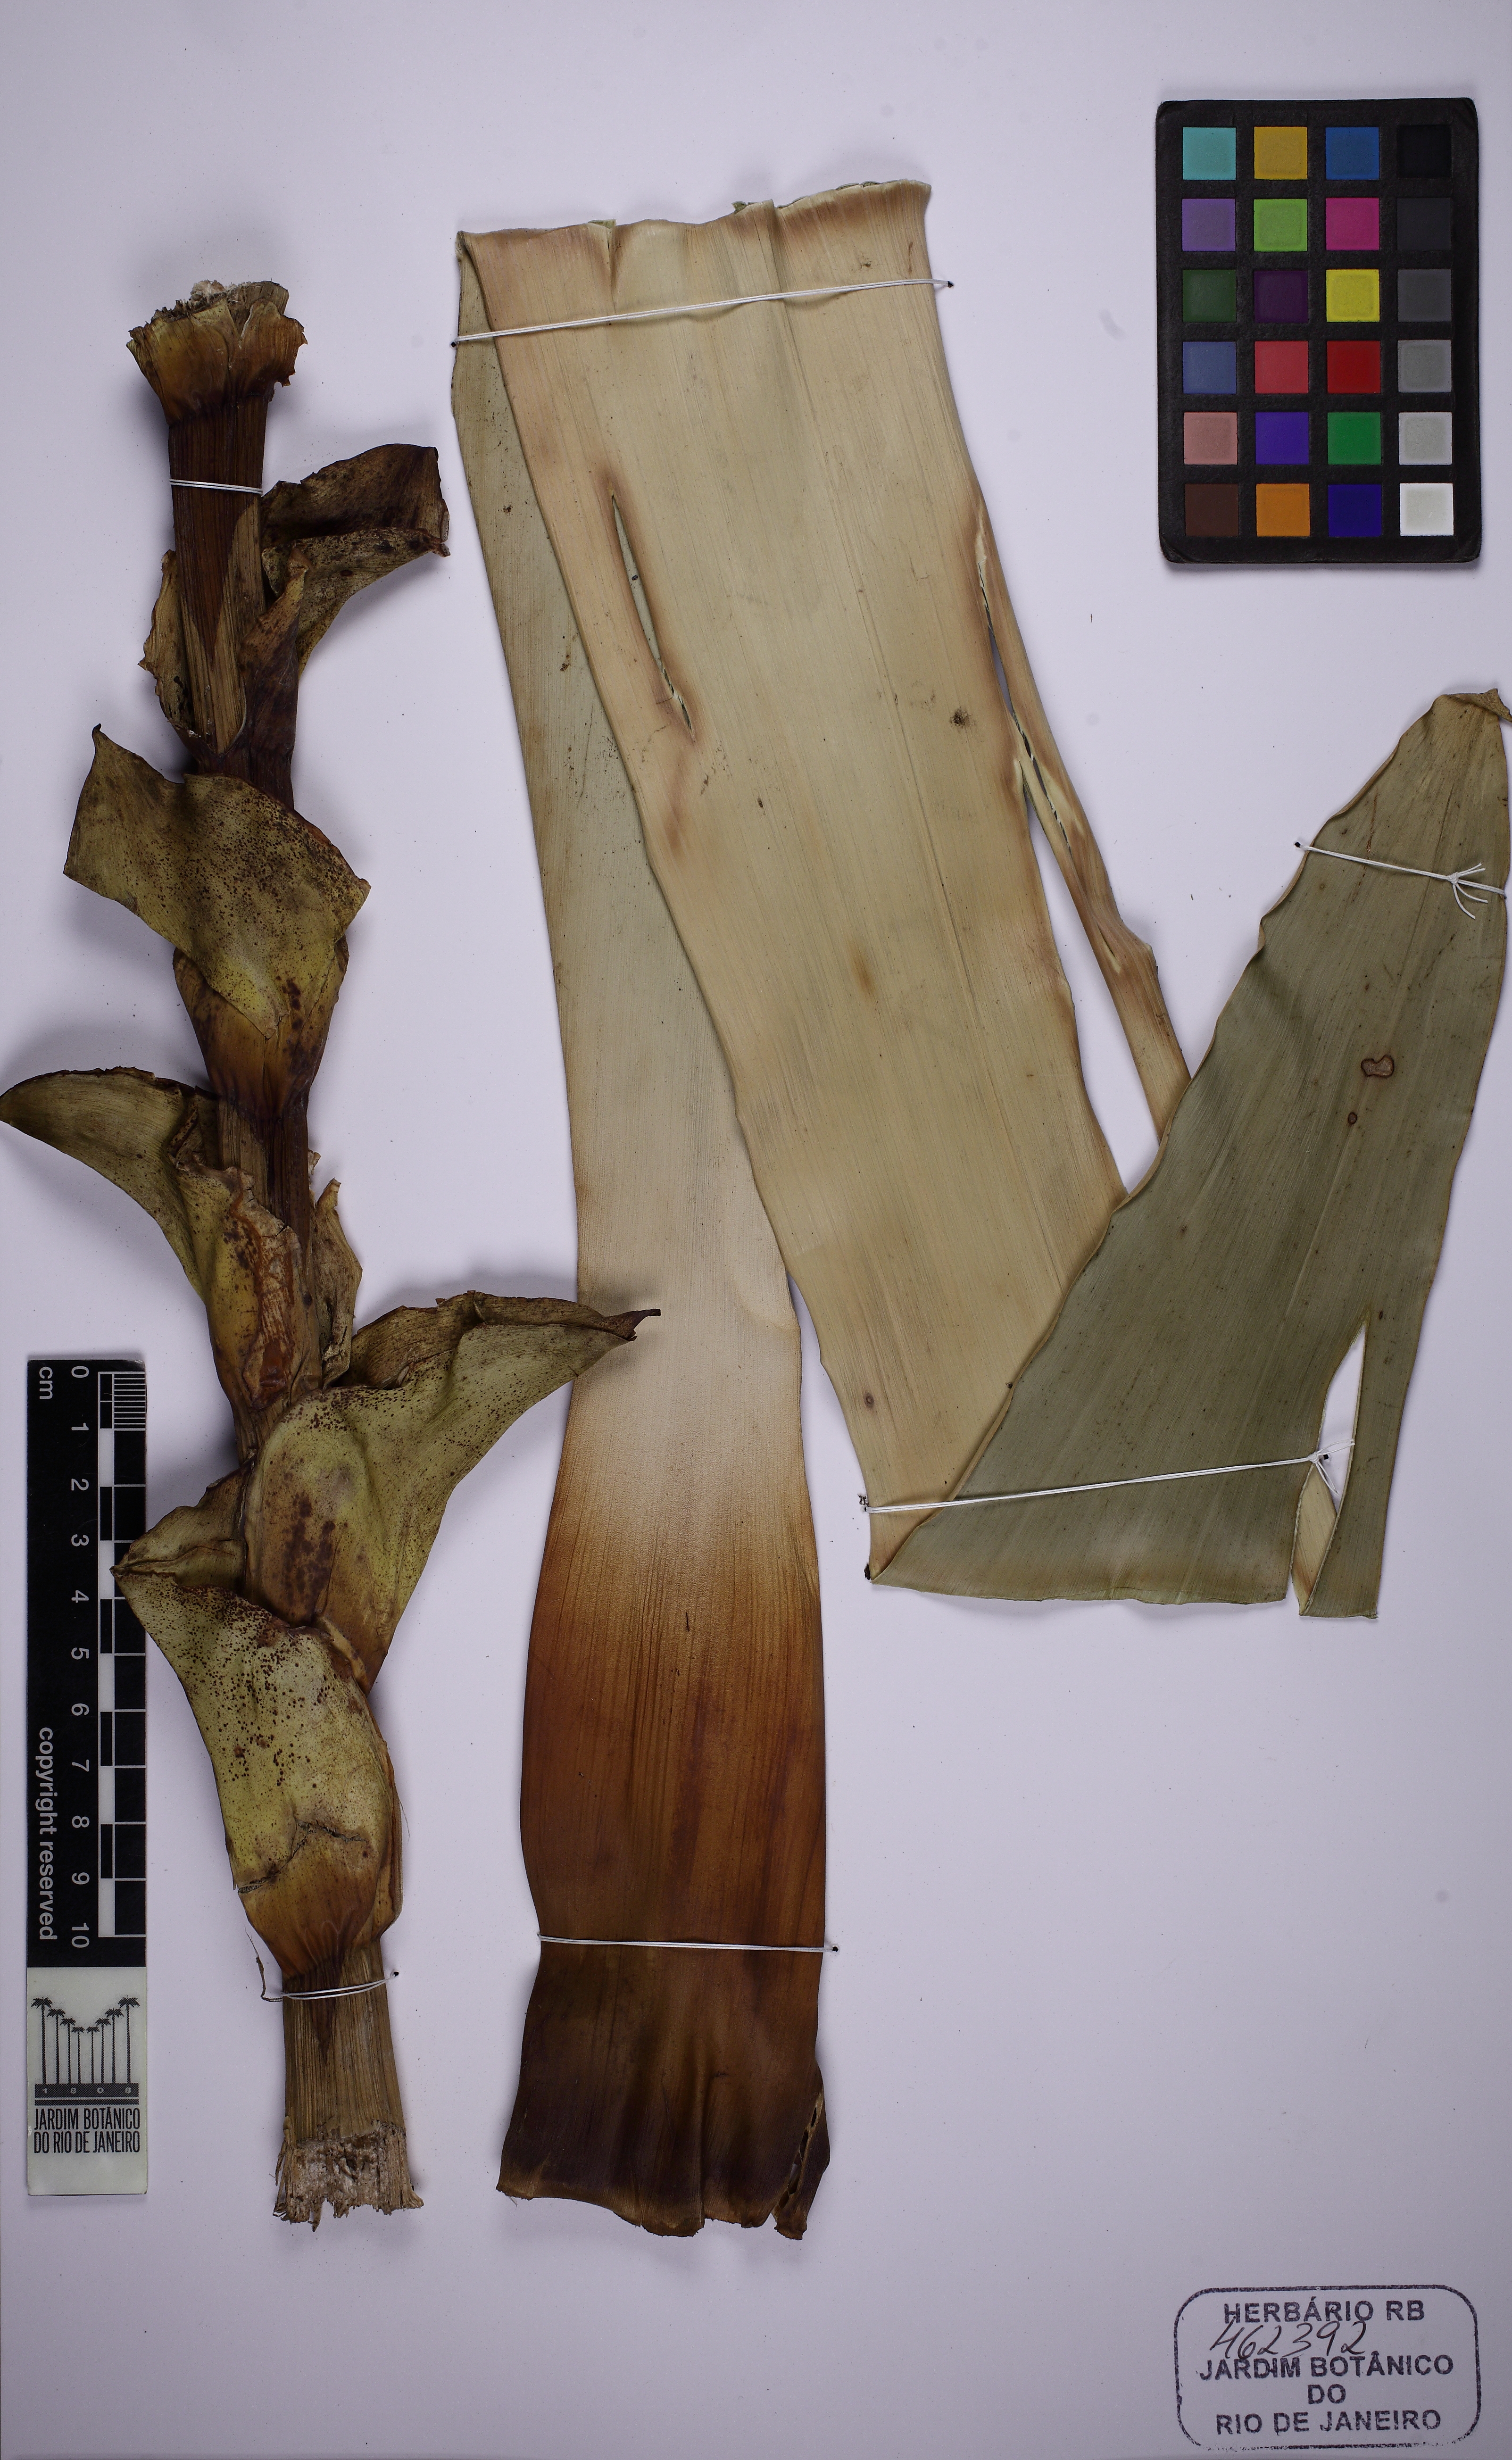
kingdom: Plantae
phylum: Tracheophyta
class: Liliopsida
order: Poales
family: Bromeliaceae
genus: Alcantarea
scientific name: Alcantarea extensa
